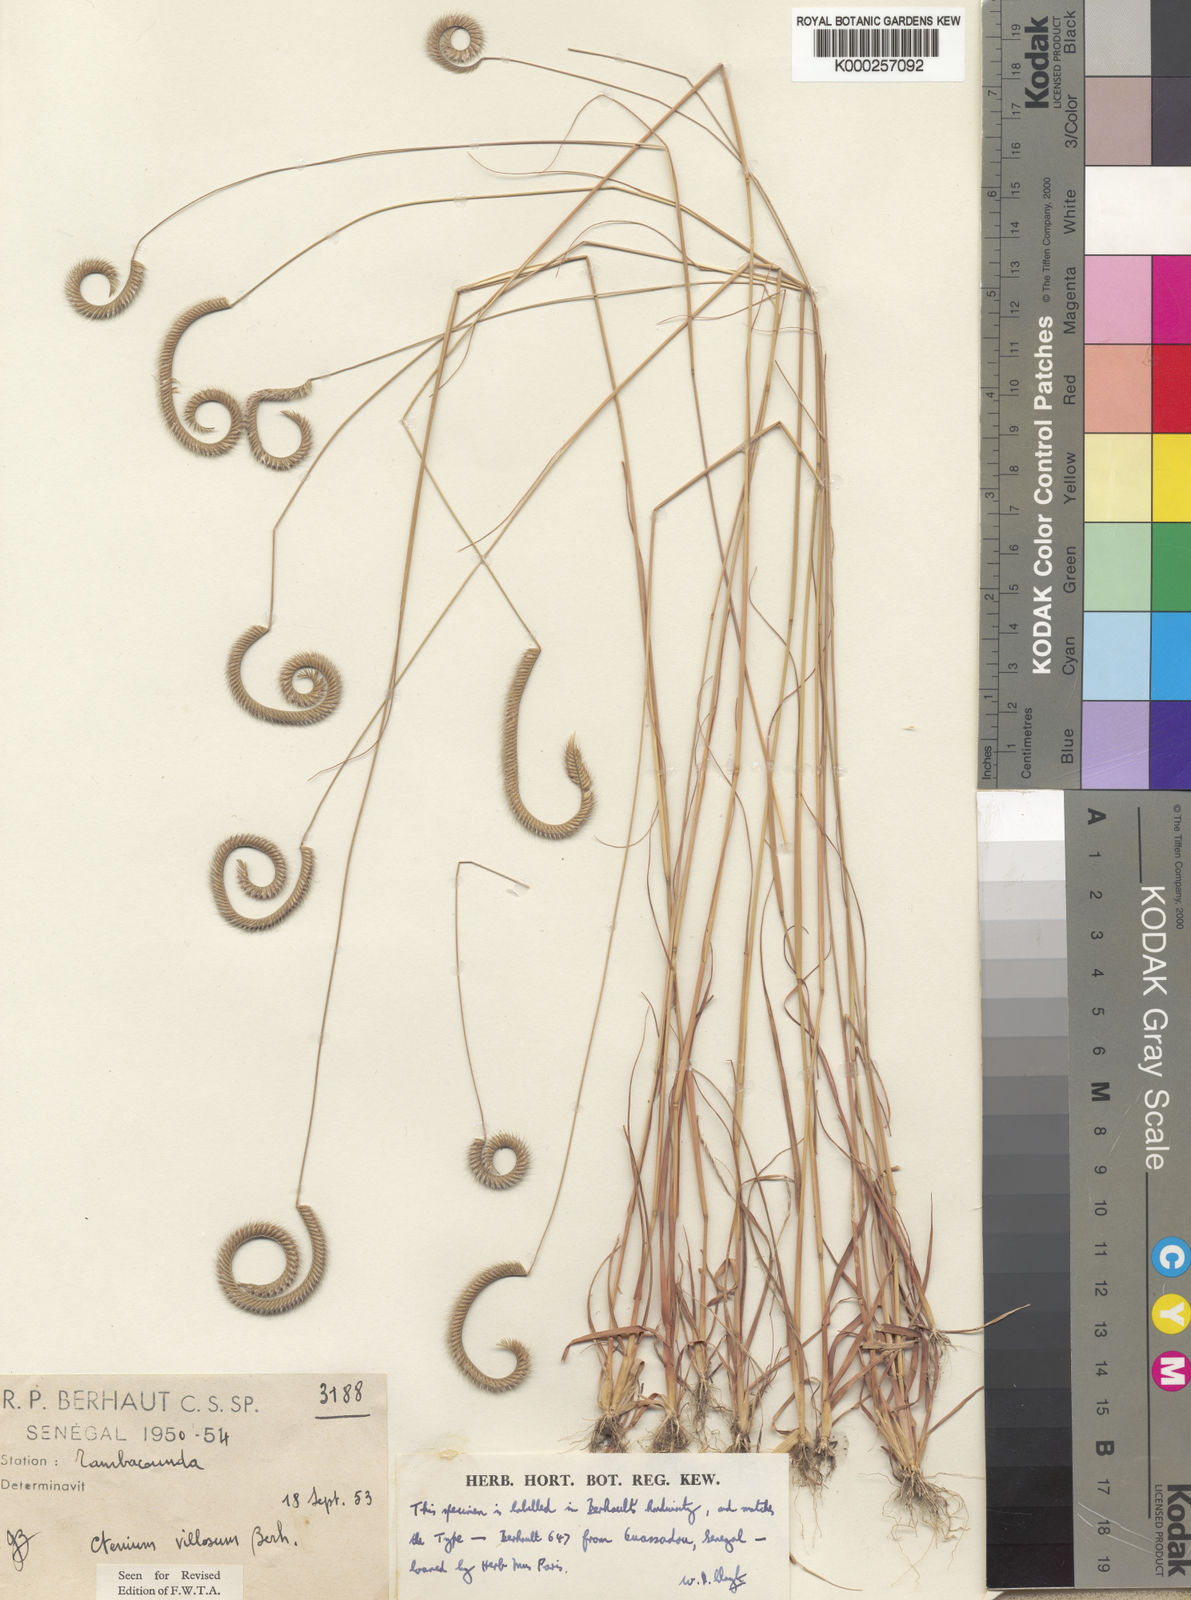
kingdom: Plantae
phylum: Tracheophyta
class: Liliopsida
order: Poales
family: Poaceae
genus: Ctenium
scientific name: Ctenium villosum
